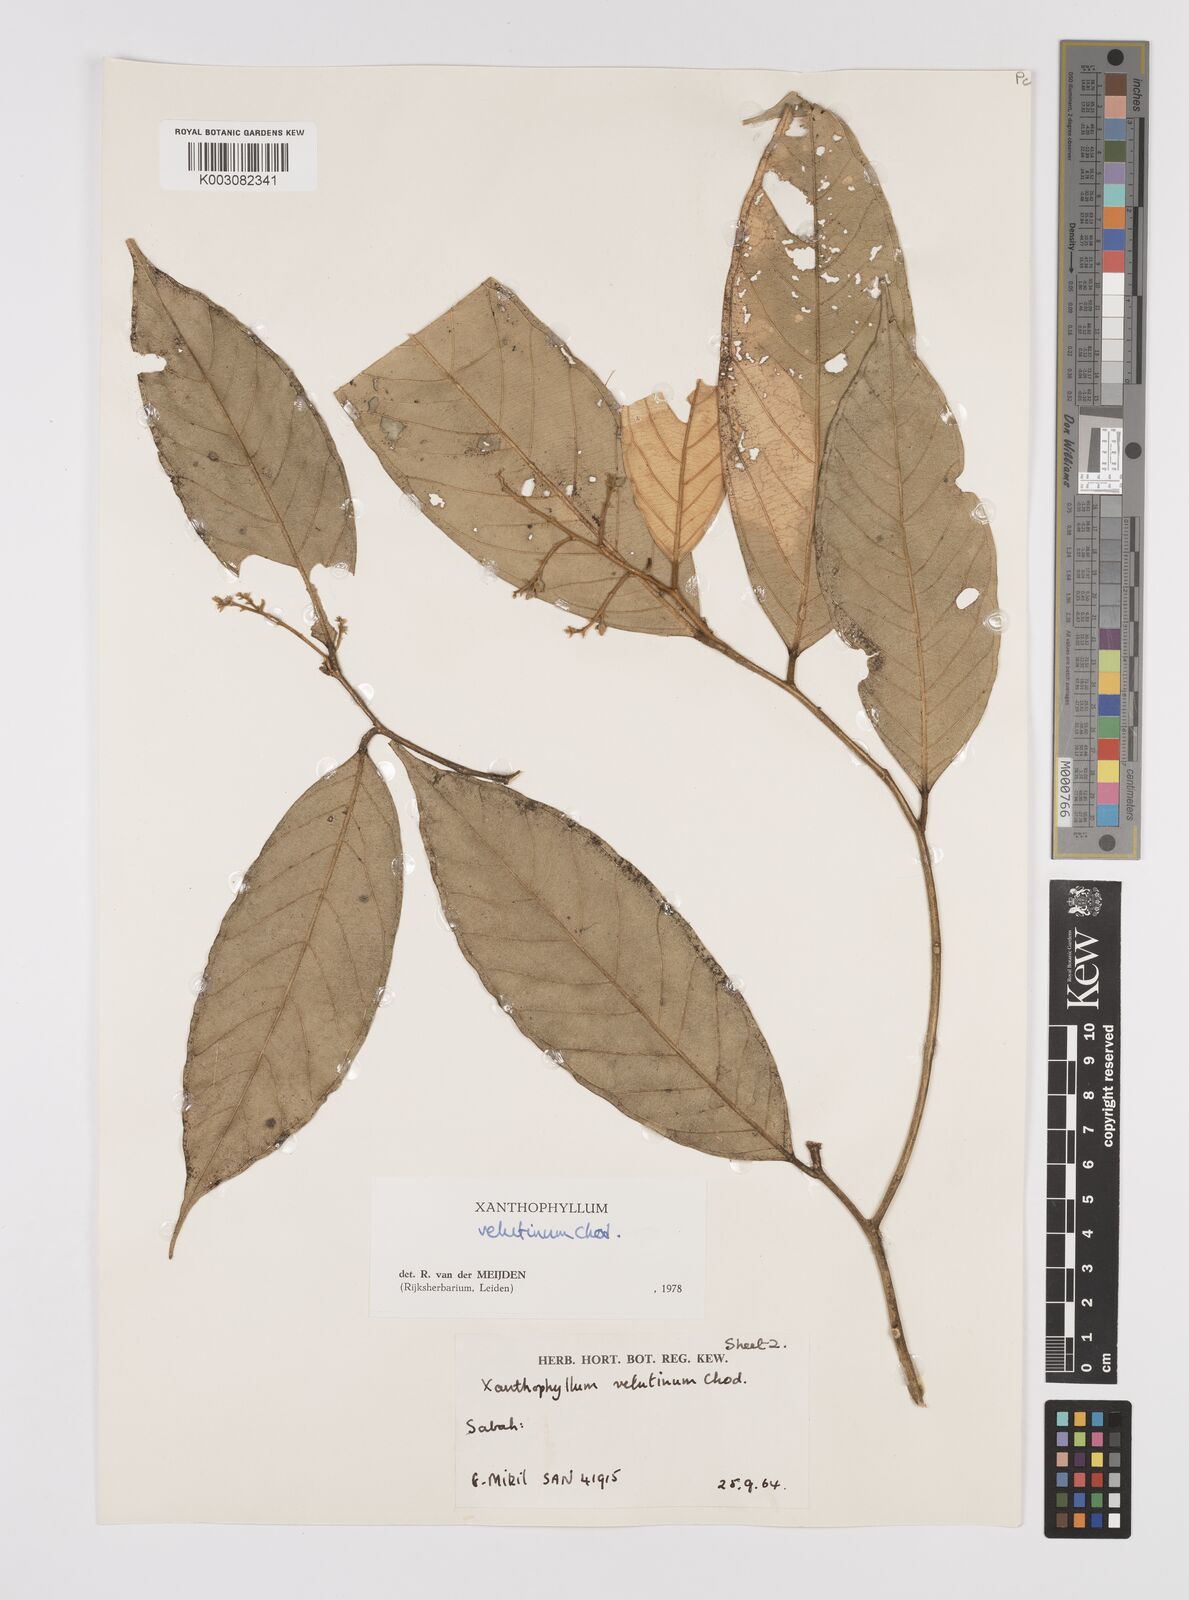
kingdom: Plantae
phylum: Tracheophyta
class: Magnoliopsida
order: Fabales
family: Polygalaceae
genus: Xanthophyllum
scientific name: Xanthophyllum velutinum
